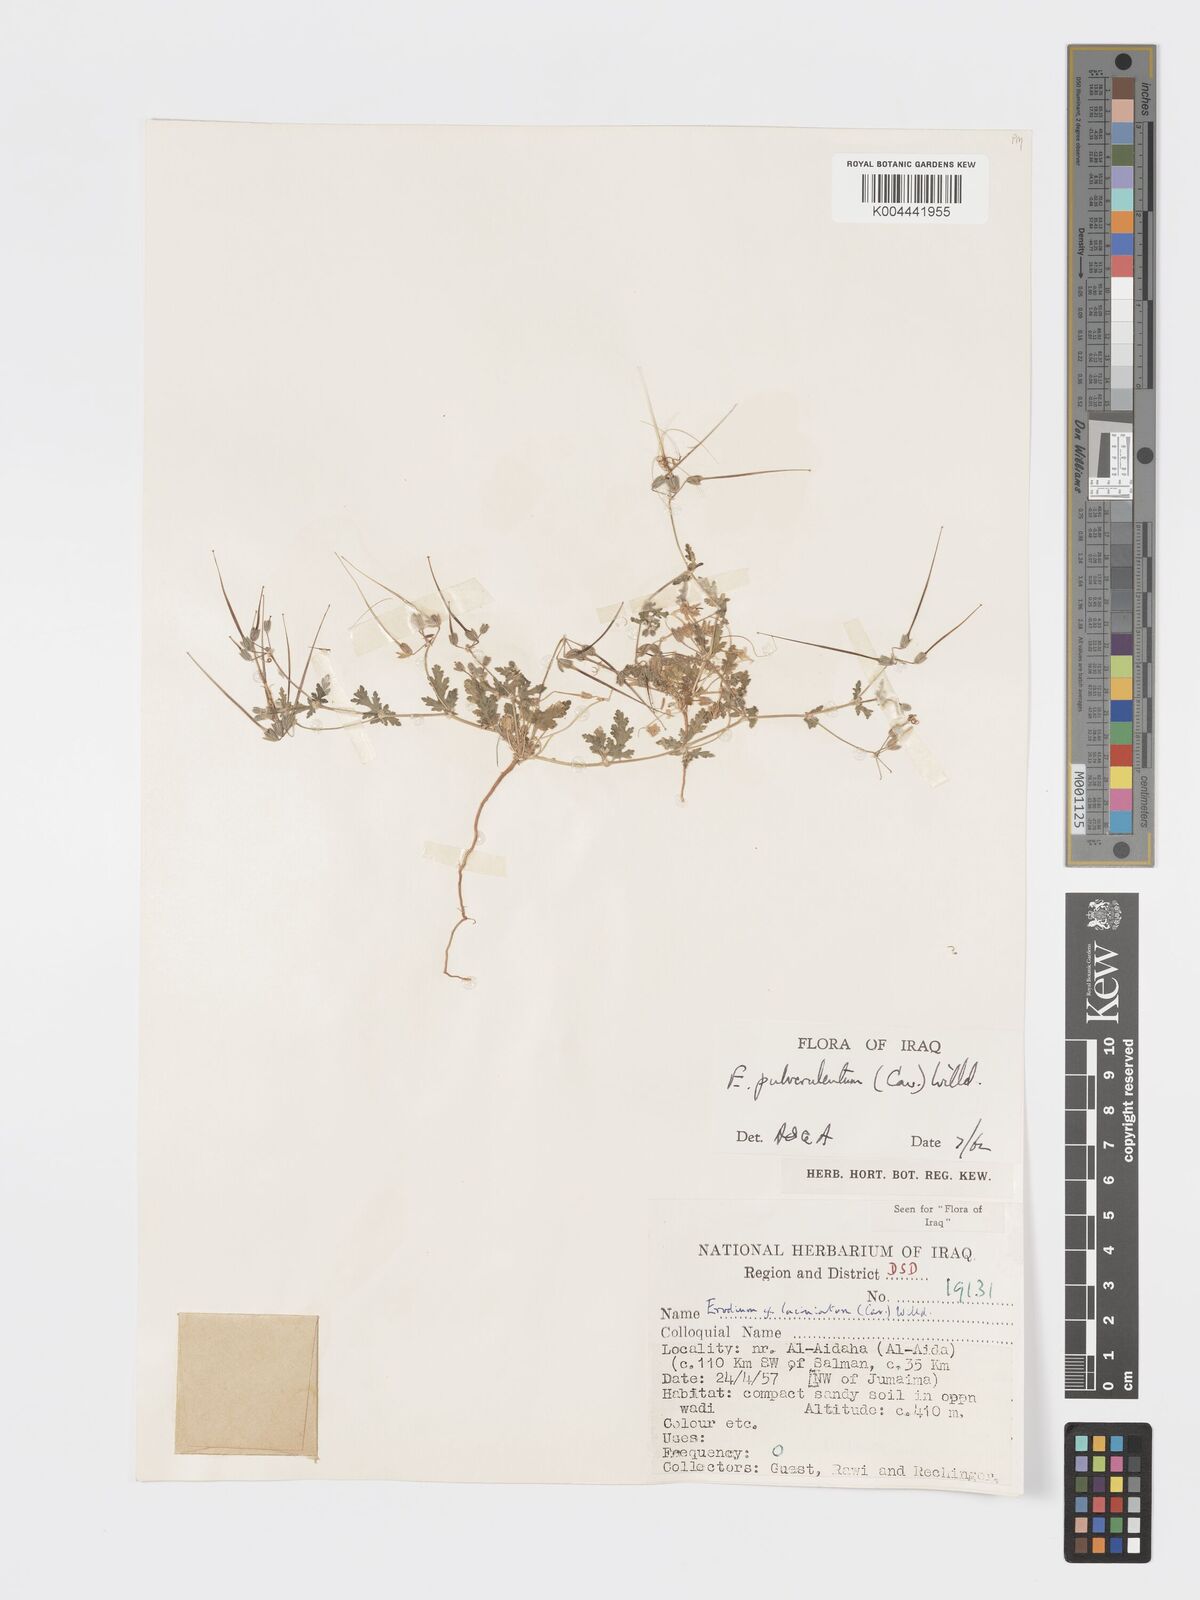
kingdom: Plantae
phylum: Tracheophyta
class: Magnoliopsida
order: Geraniales
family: Geraniaceae
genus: Erodium
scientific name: Erodium laciniatum
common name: Cutleaf stork's bill
